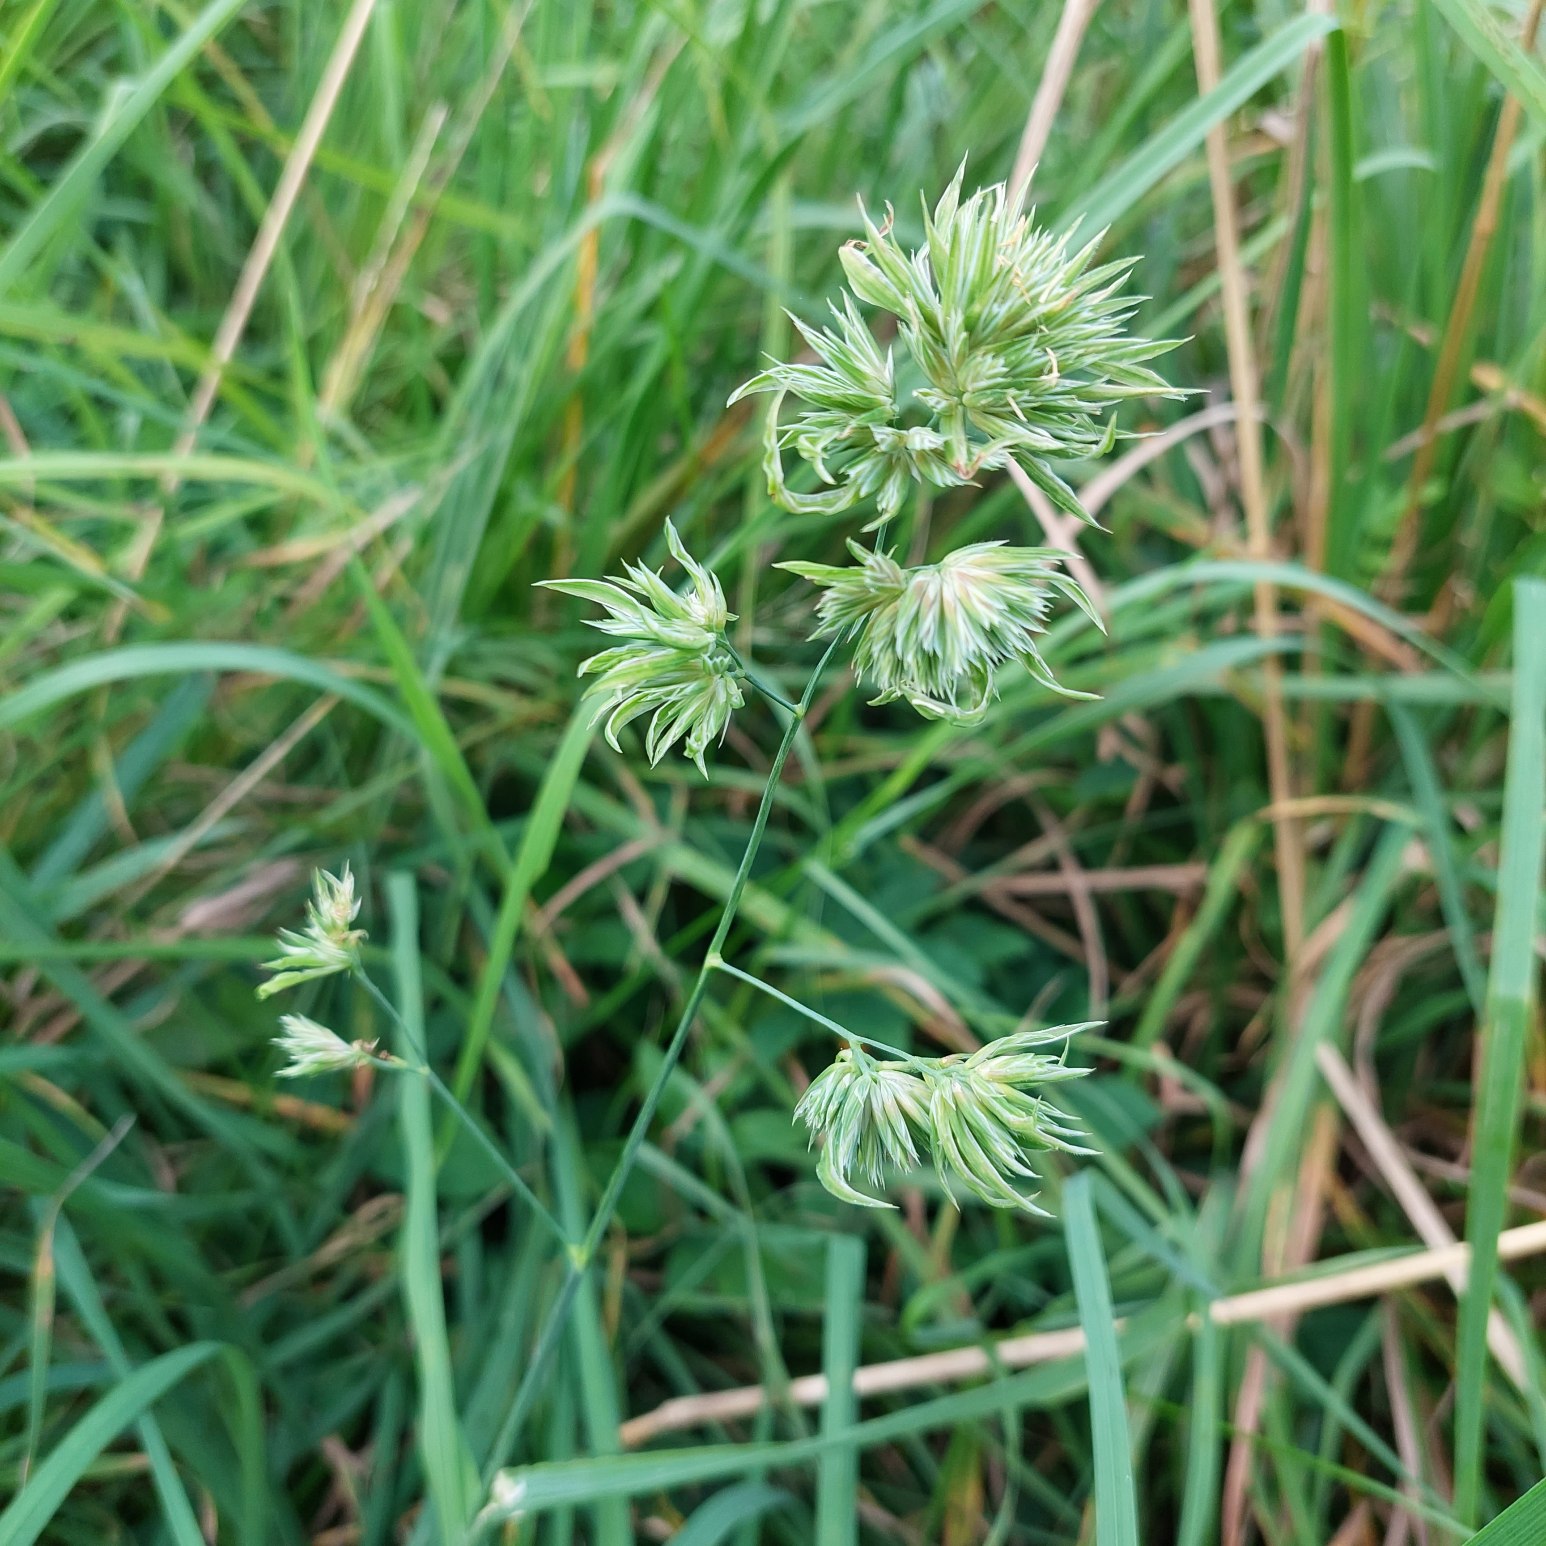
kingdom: Plantae
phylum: Tracheophyta
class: Liliopsida
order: Poales
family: Poaceae
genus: Dactylis
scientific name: Dactylis glomerata
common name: Almindelig hundegræs
